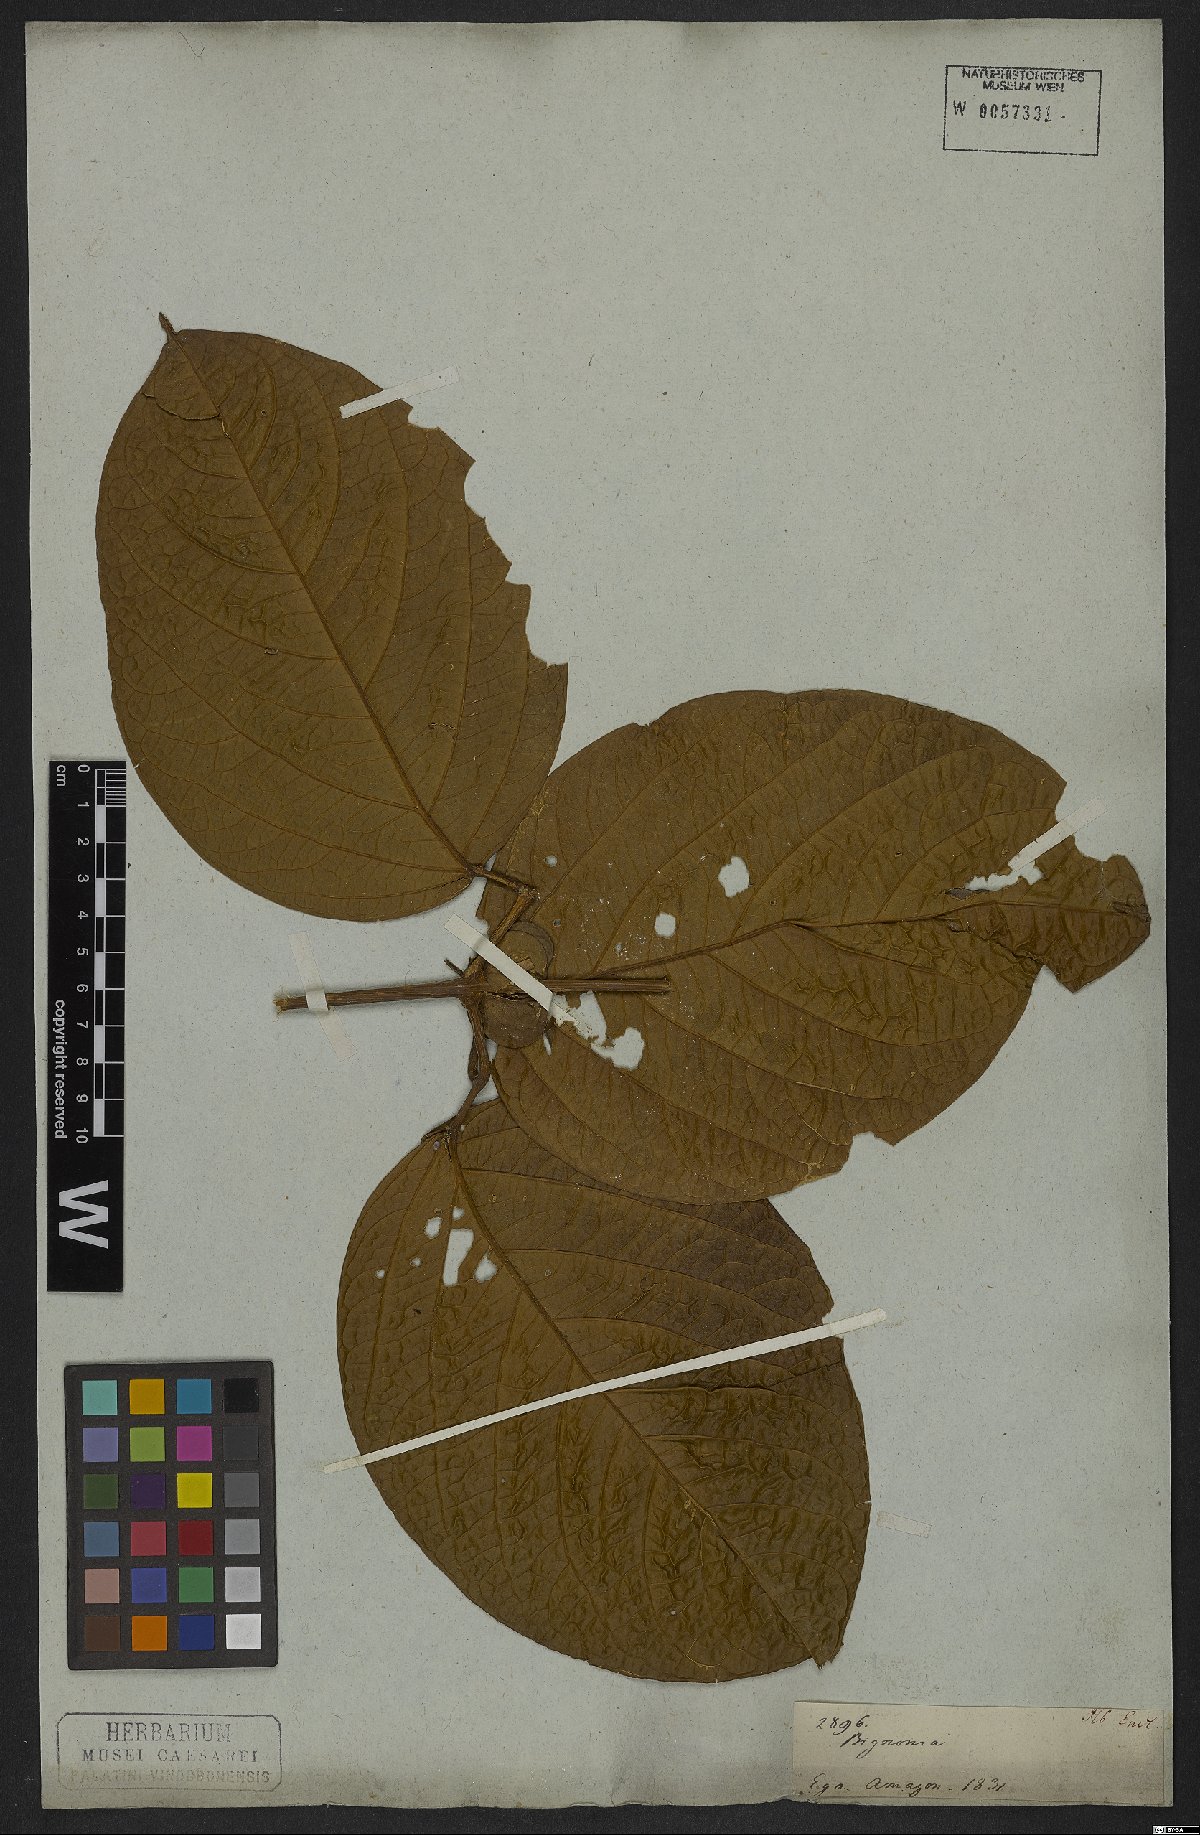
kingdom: Plantae
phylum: Tracheophyta
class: Magnoliopsida
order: Lamiales
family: Bignoniaceae
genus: Anemopaegma
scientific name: Anemopaegma paraense
